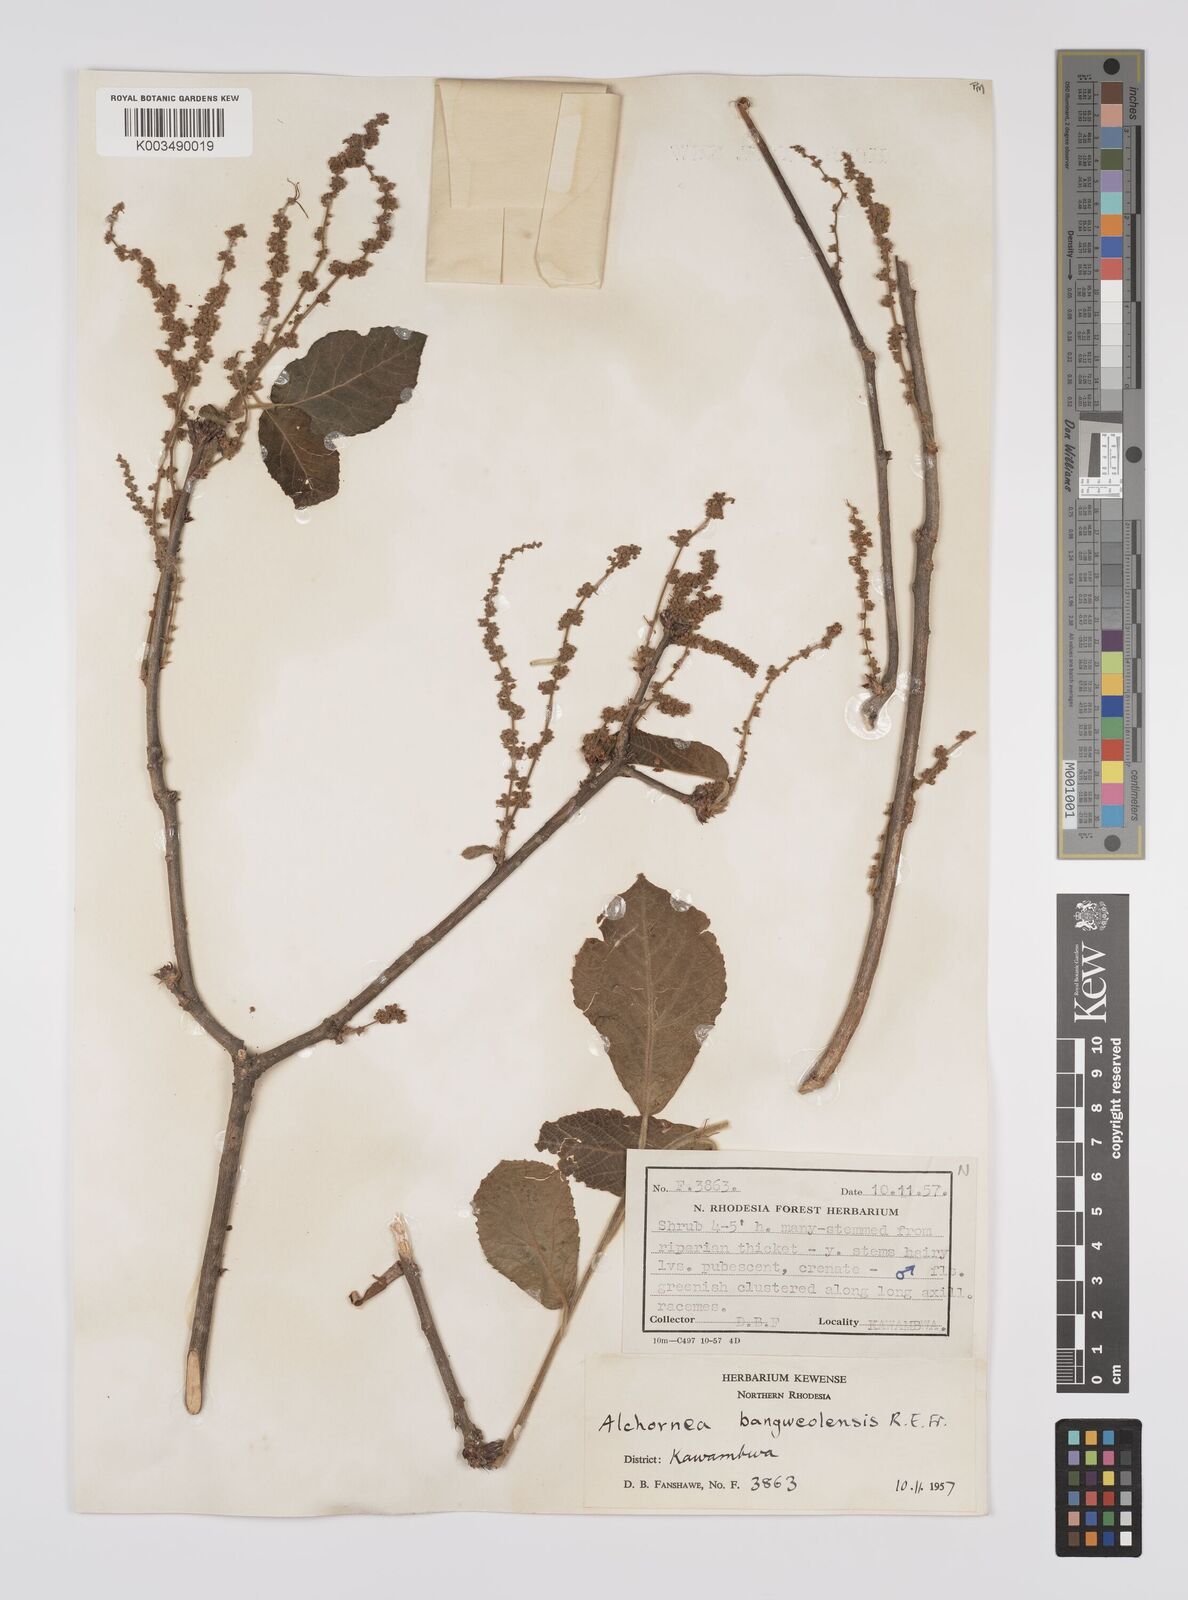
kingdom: Plantae
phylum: Tracheophyta
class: Magnoliopsida
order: Malpighiales
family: Euphorbiaceae
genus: Alchornea
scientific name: Alchornea yambuyaensis
